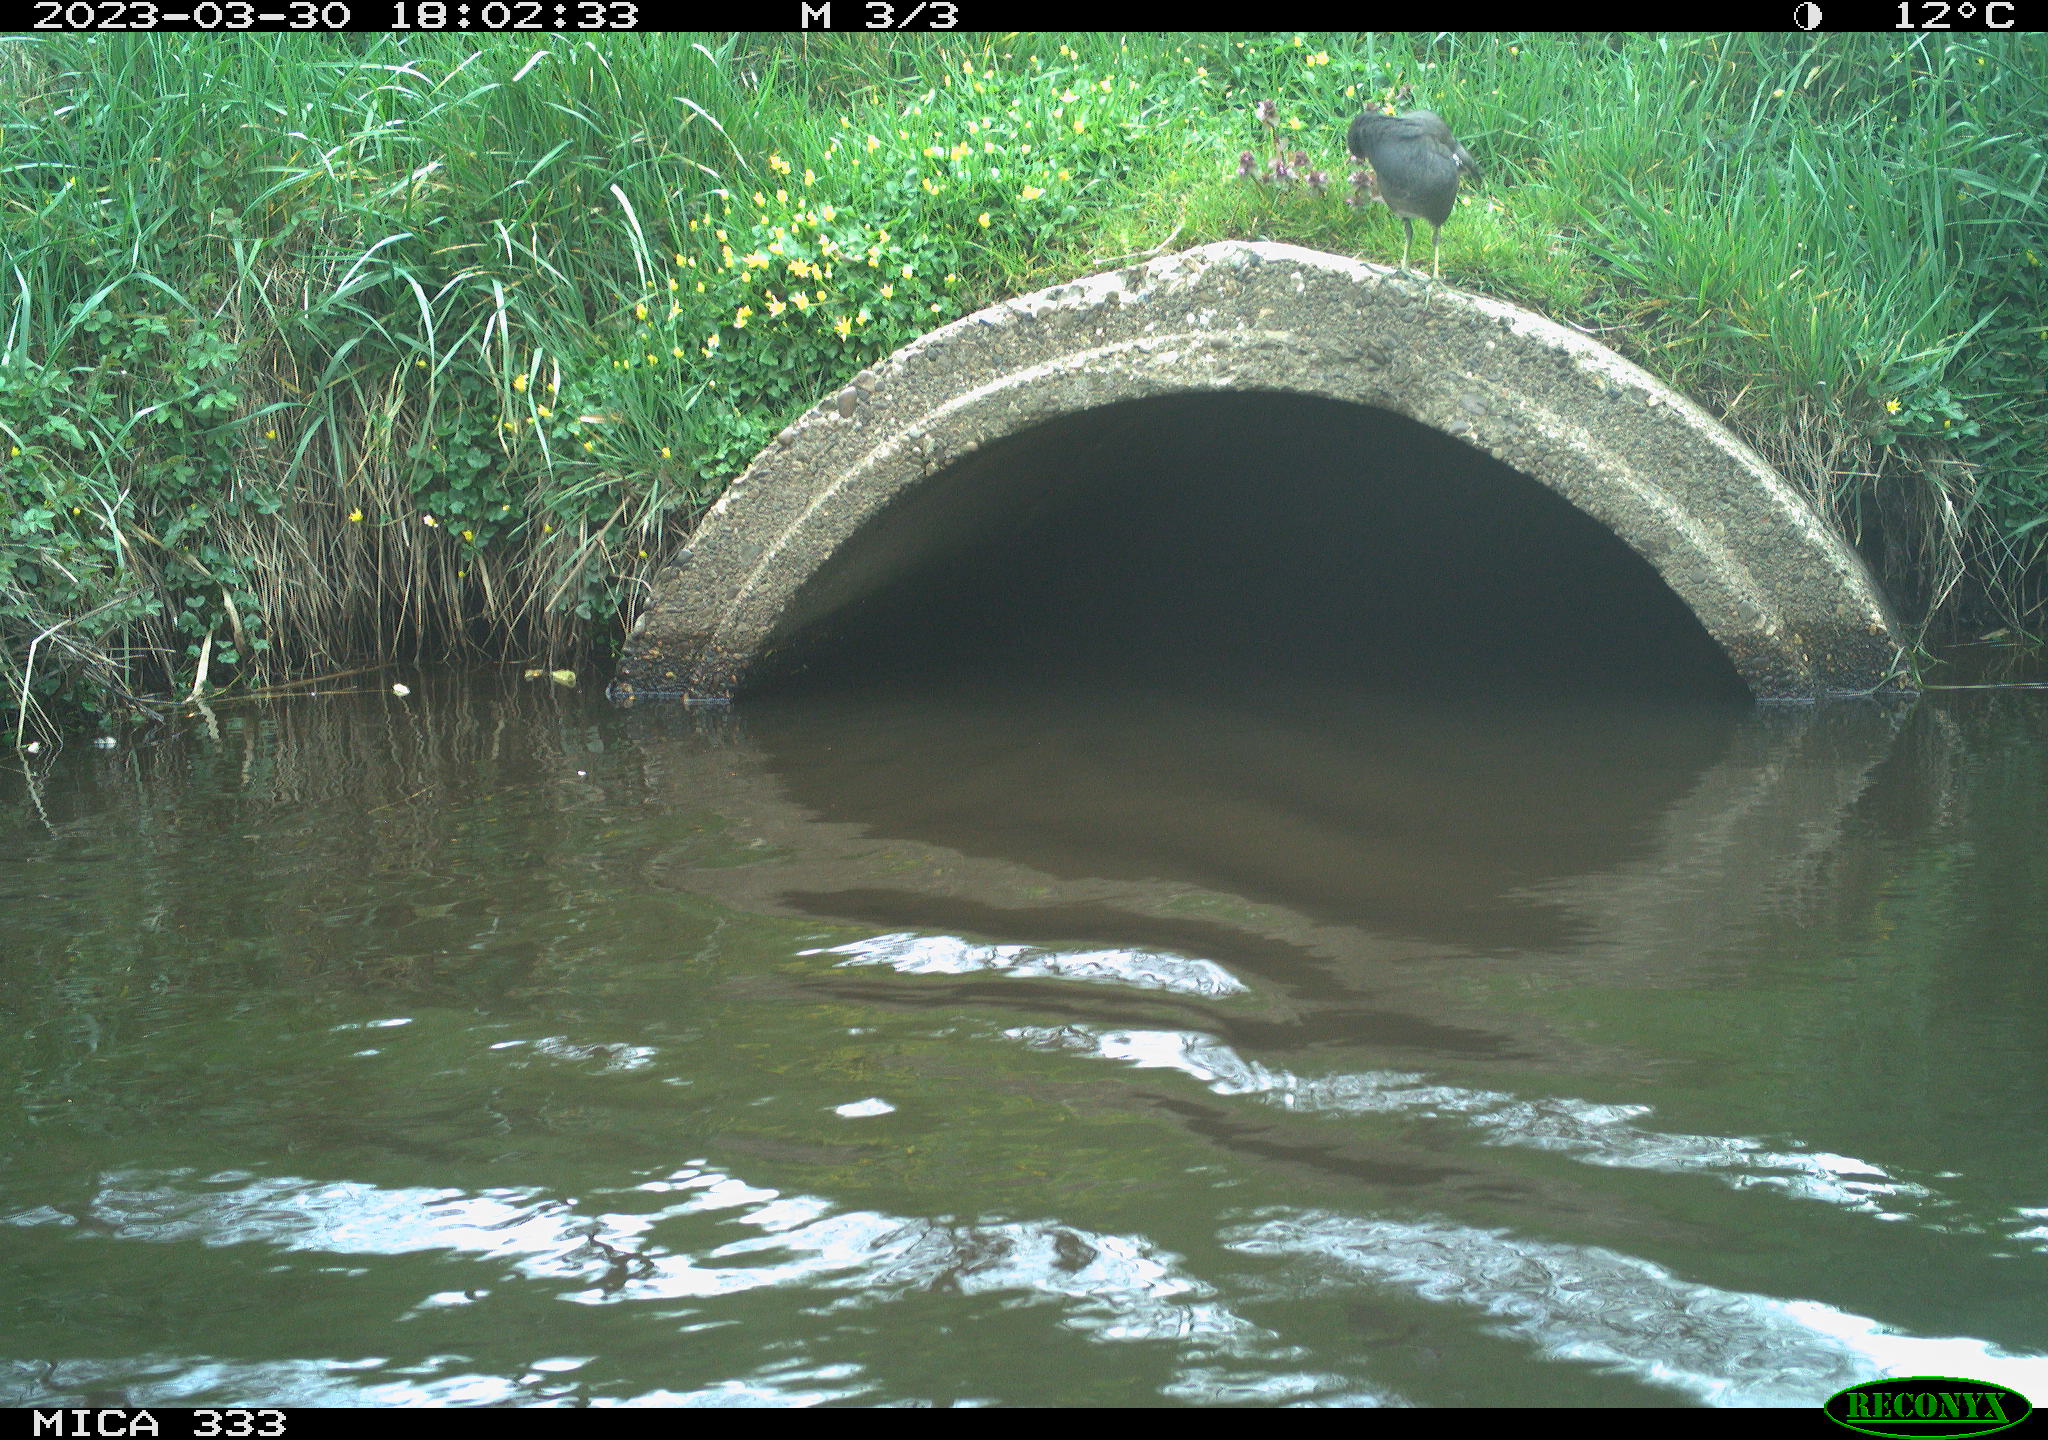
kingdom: Animalia
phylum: Chordata
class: Aves
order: Gruiformes
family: Rallidae
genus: Gallinula
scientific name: Gallinula chloropus
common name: Common moorhen
